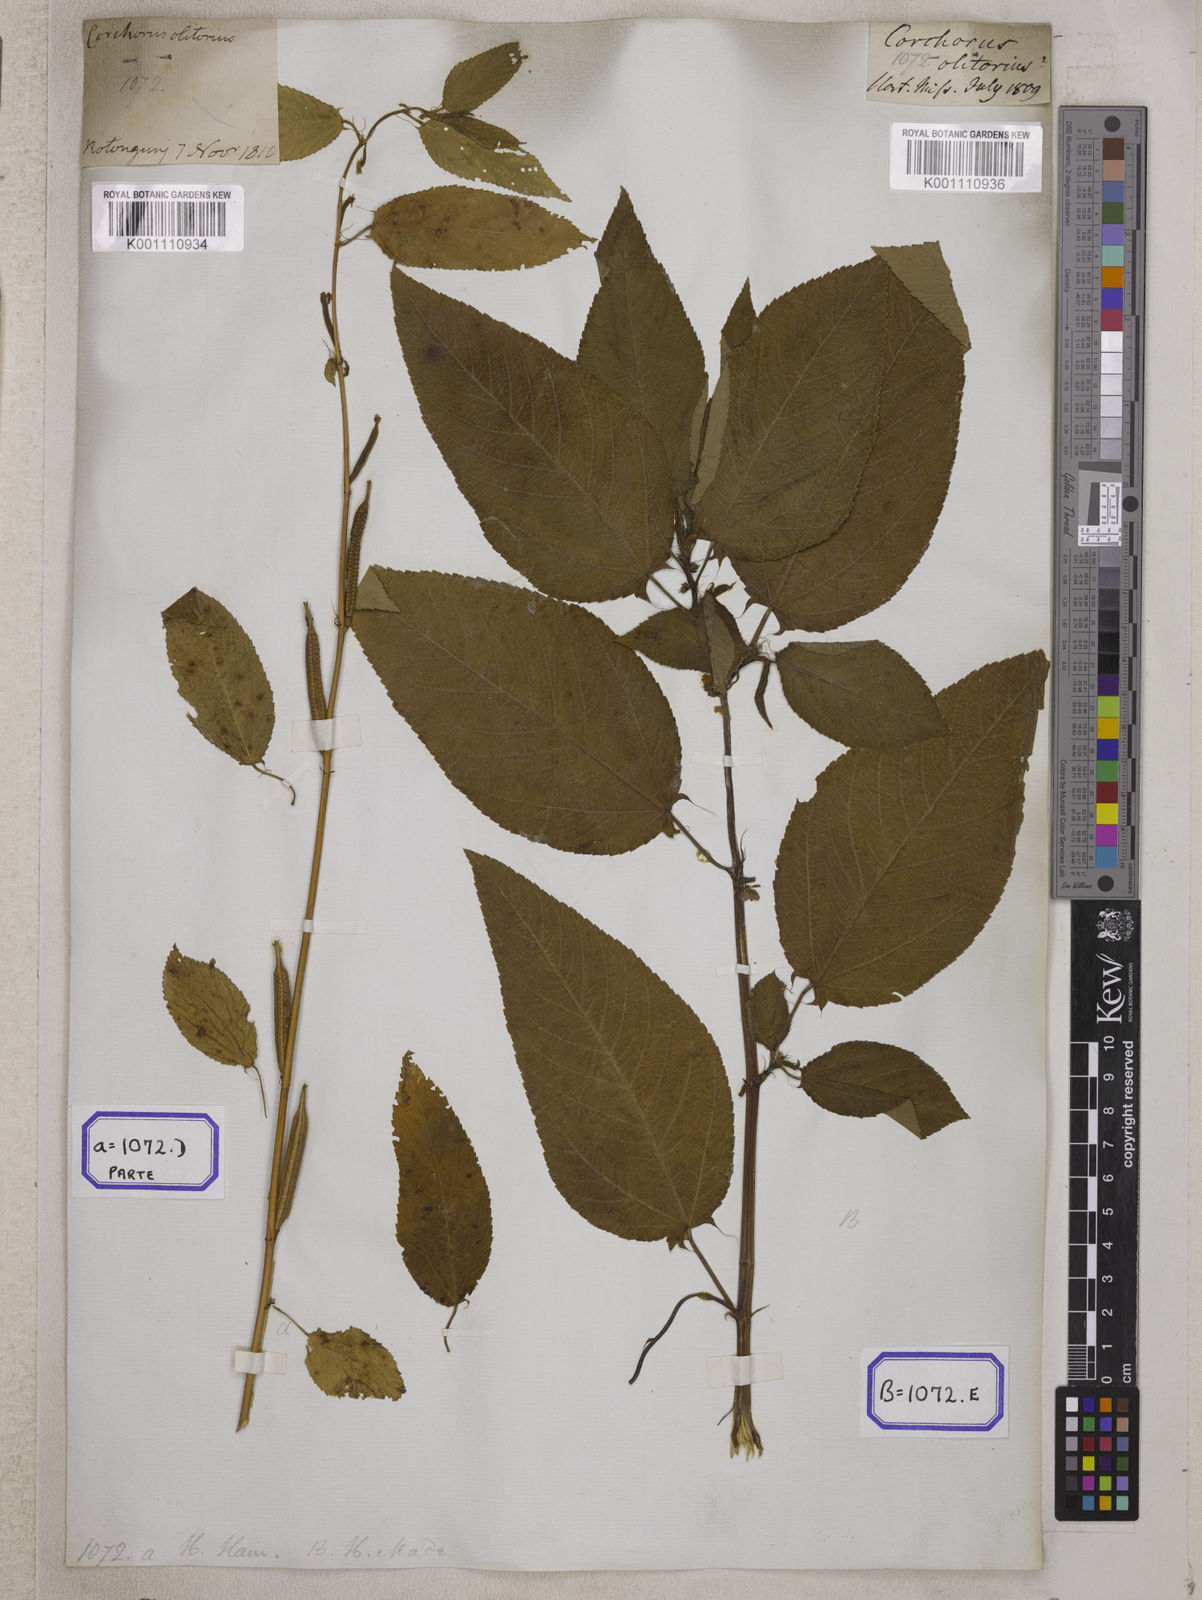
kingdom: Plantae
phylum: Tracheophyta
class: Magnoliopsida
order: Malvales
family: Malvaceae
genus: Corchorus
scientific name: Corchorus olitorius
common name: Tossa jute
